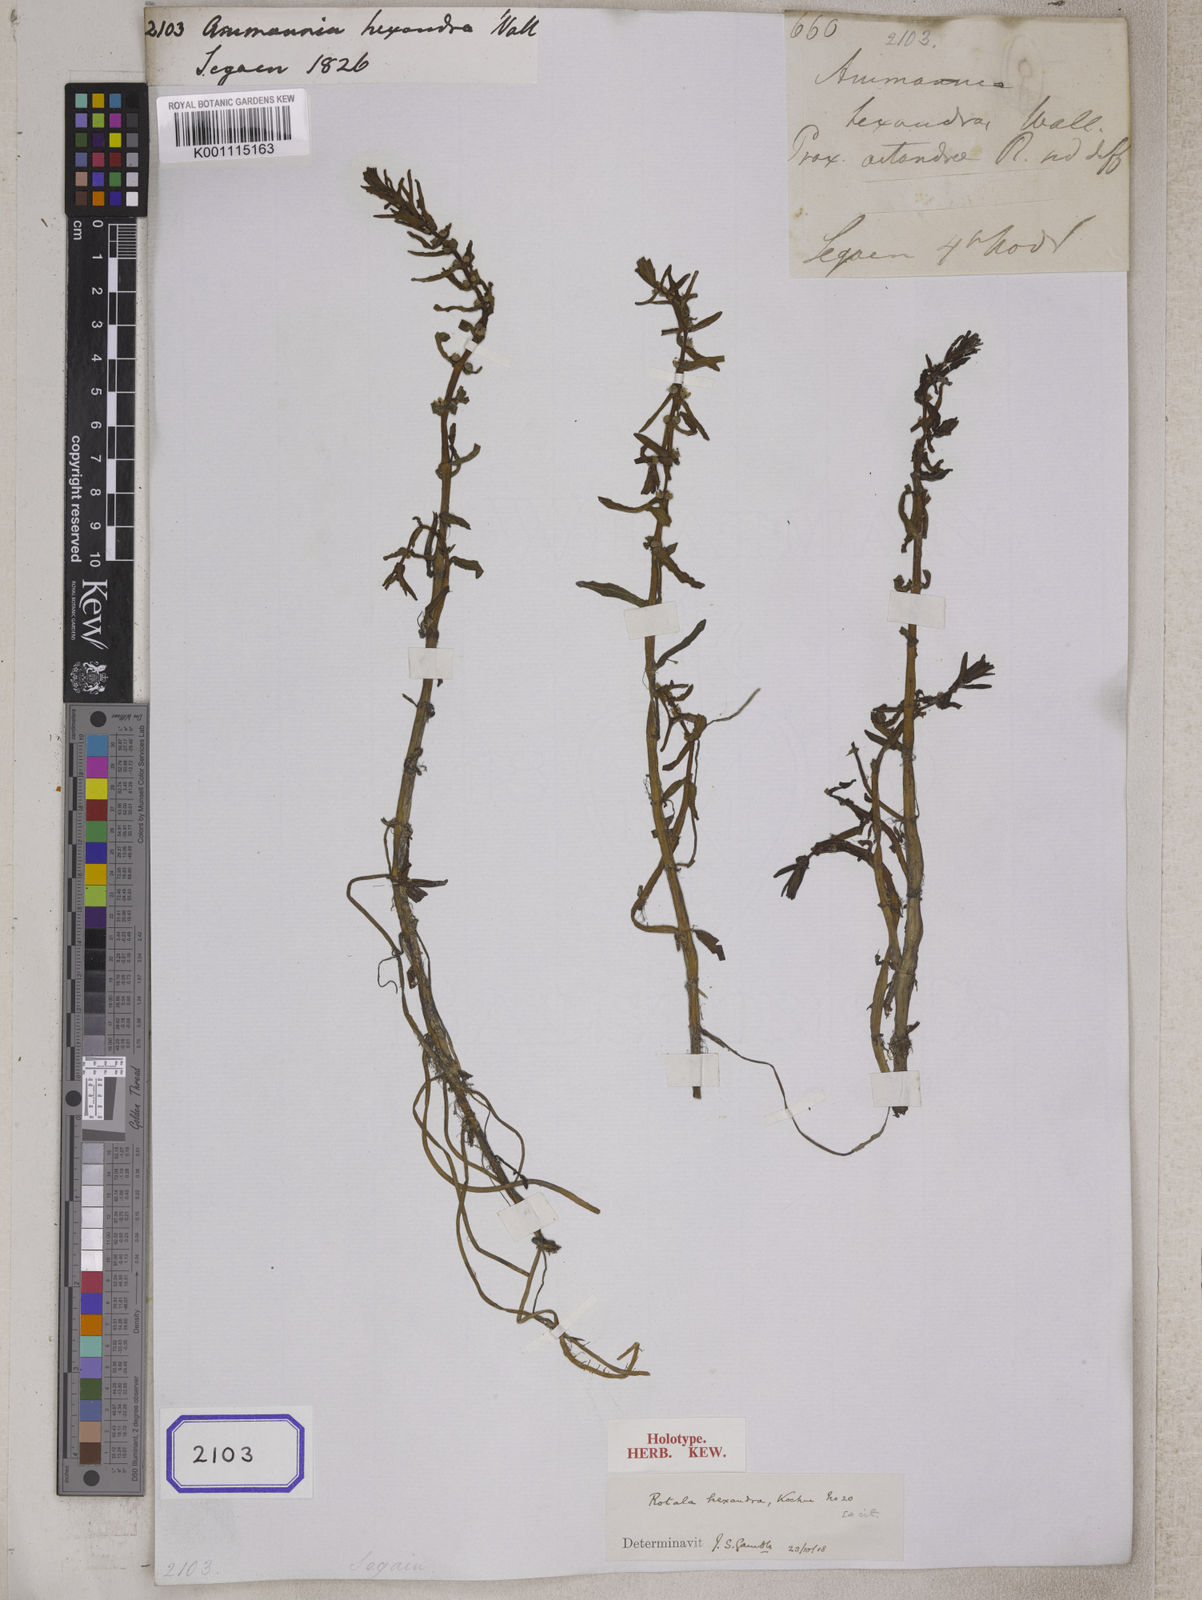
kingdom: Plantae
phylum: Tracheophyta
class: Magnoliopsida
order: Myrtales
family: Lythraceae
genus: Rotala
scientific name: Rotala densiflora
